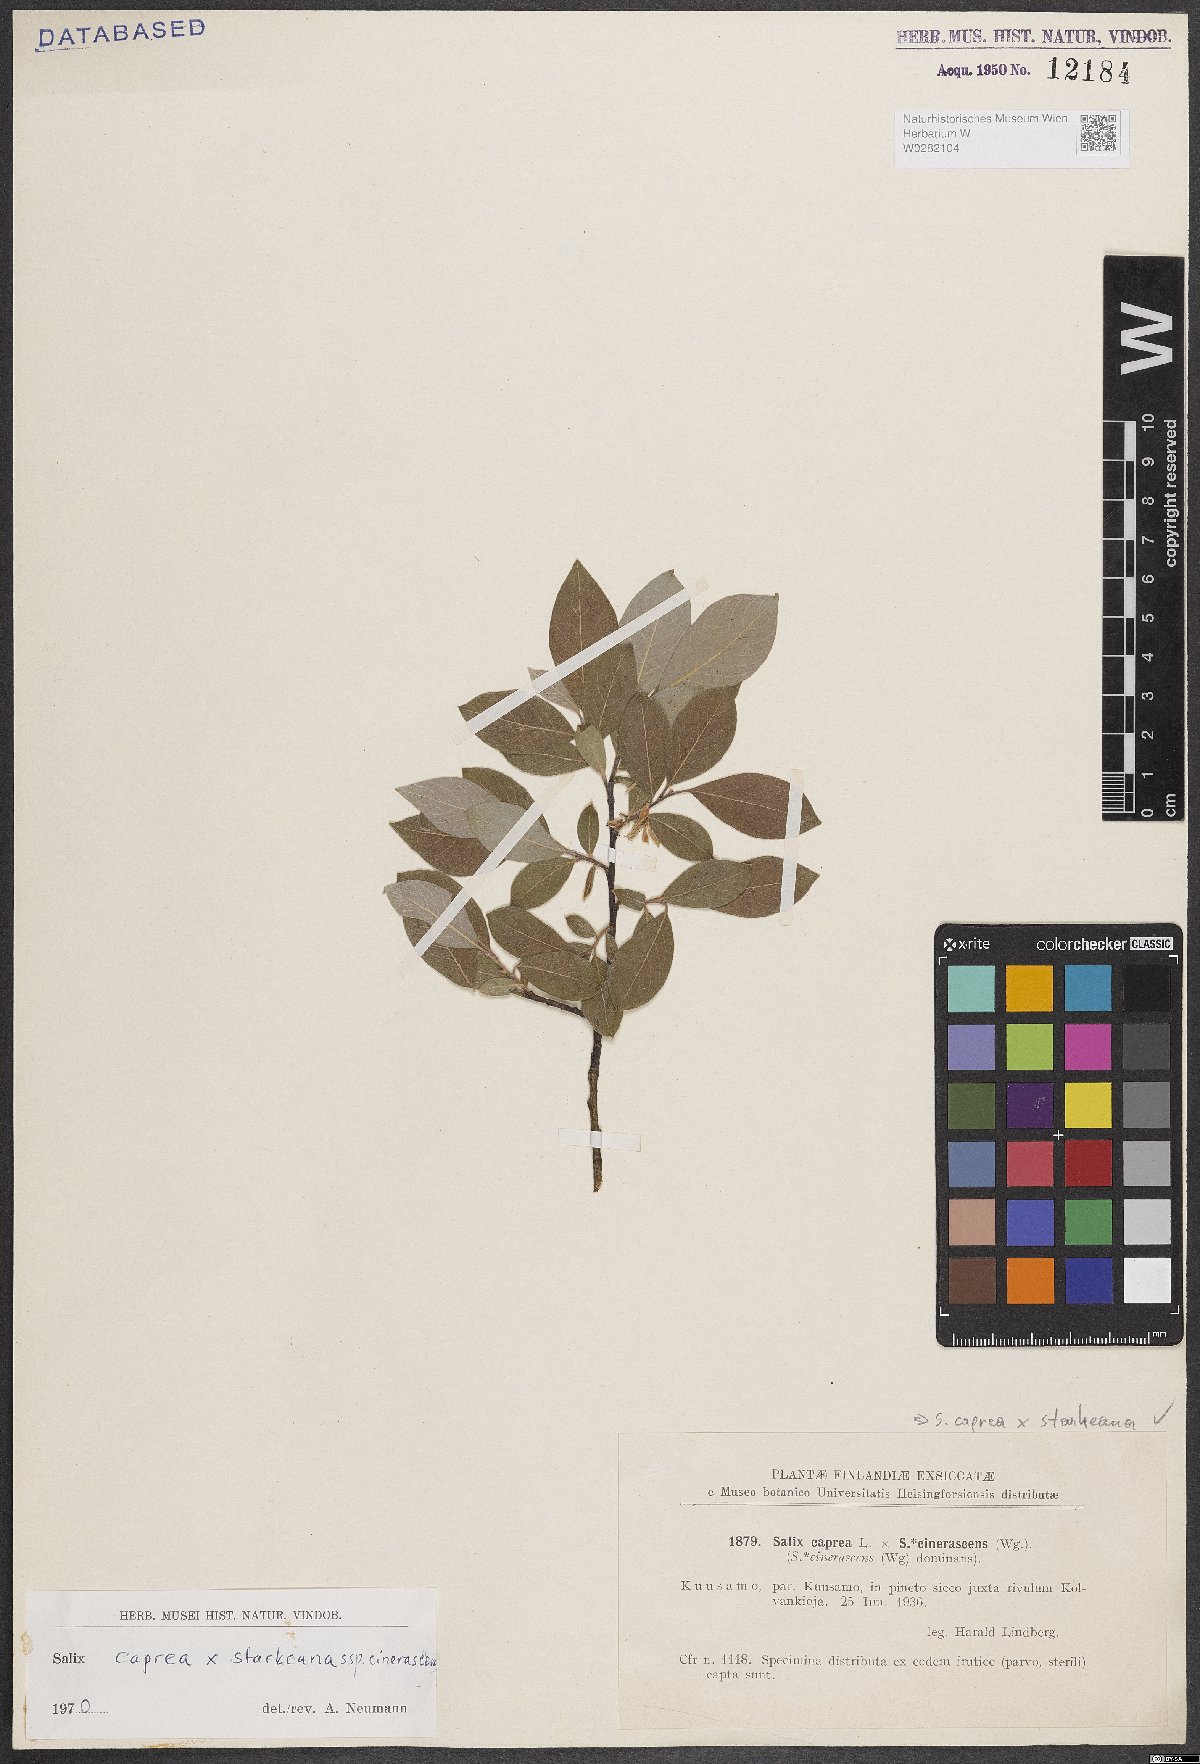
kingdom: Plantae
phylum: Tracheophyta
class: Magnoliopsida
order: Malpighiales
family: Salicaceae
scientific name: Salicaceae
